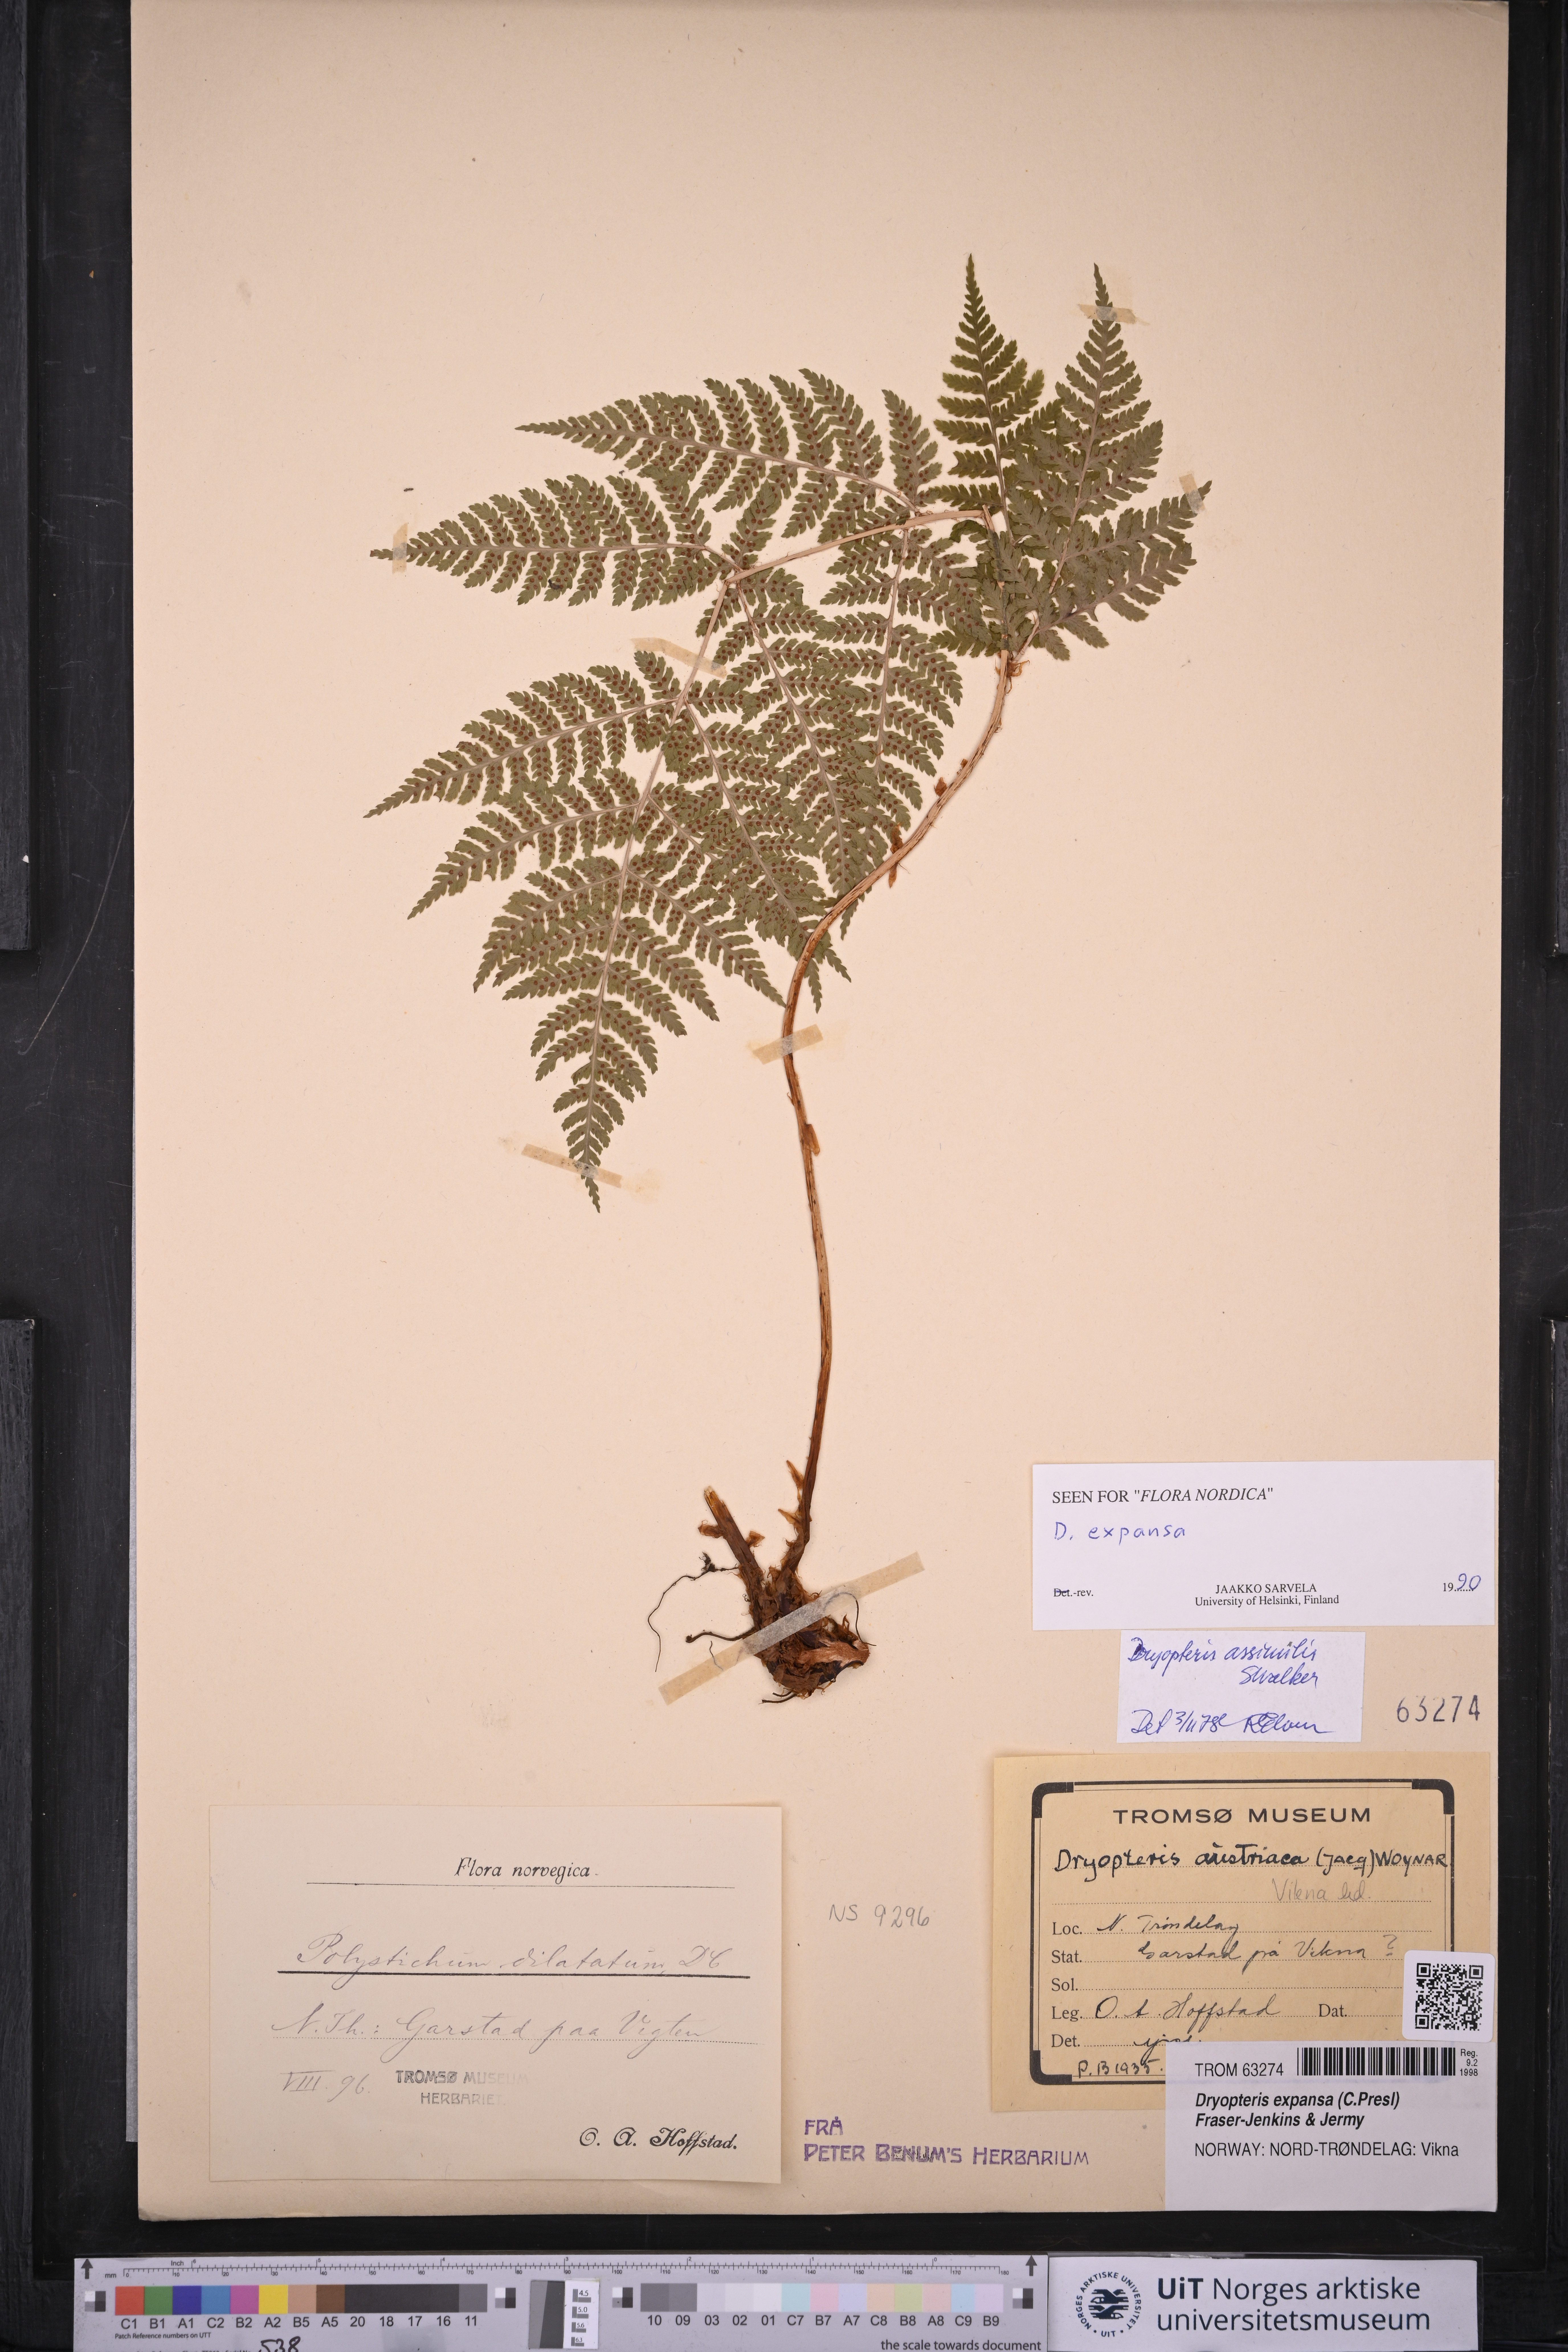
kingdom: Plantae
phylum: Tracheophyta
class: Polypodiopsida
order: Polypodiales
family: Dryopteridaceae
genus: Dryopteris
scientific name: Dryopteris expansa
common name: Northern buckler fern
